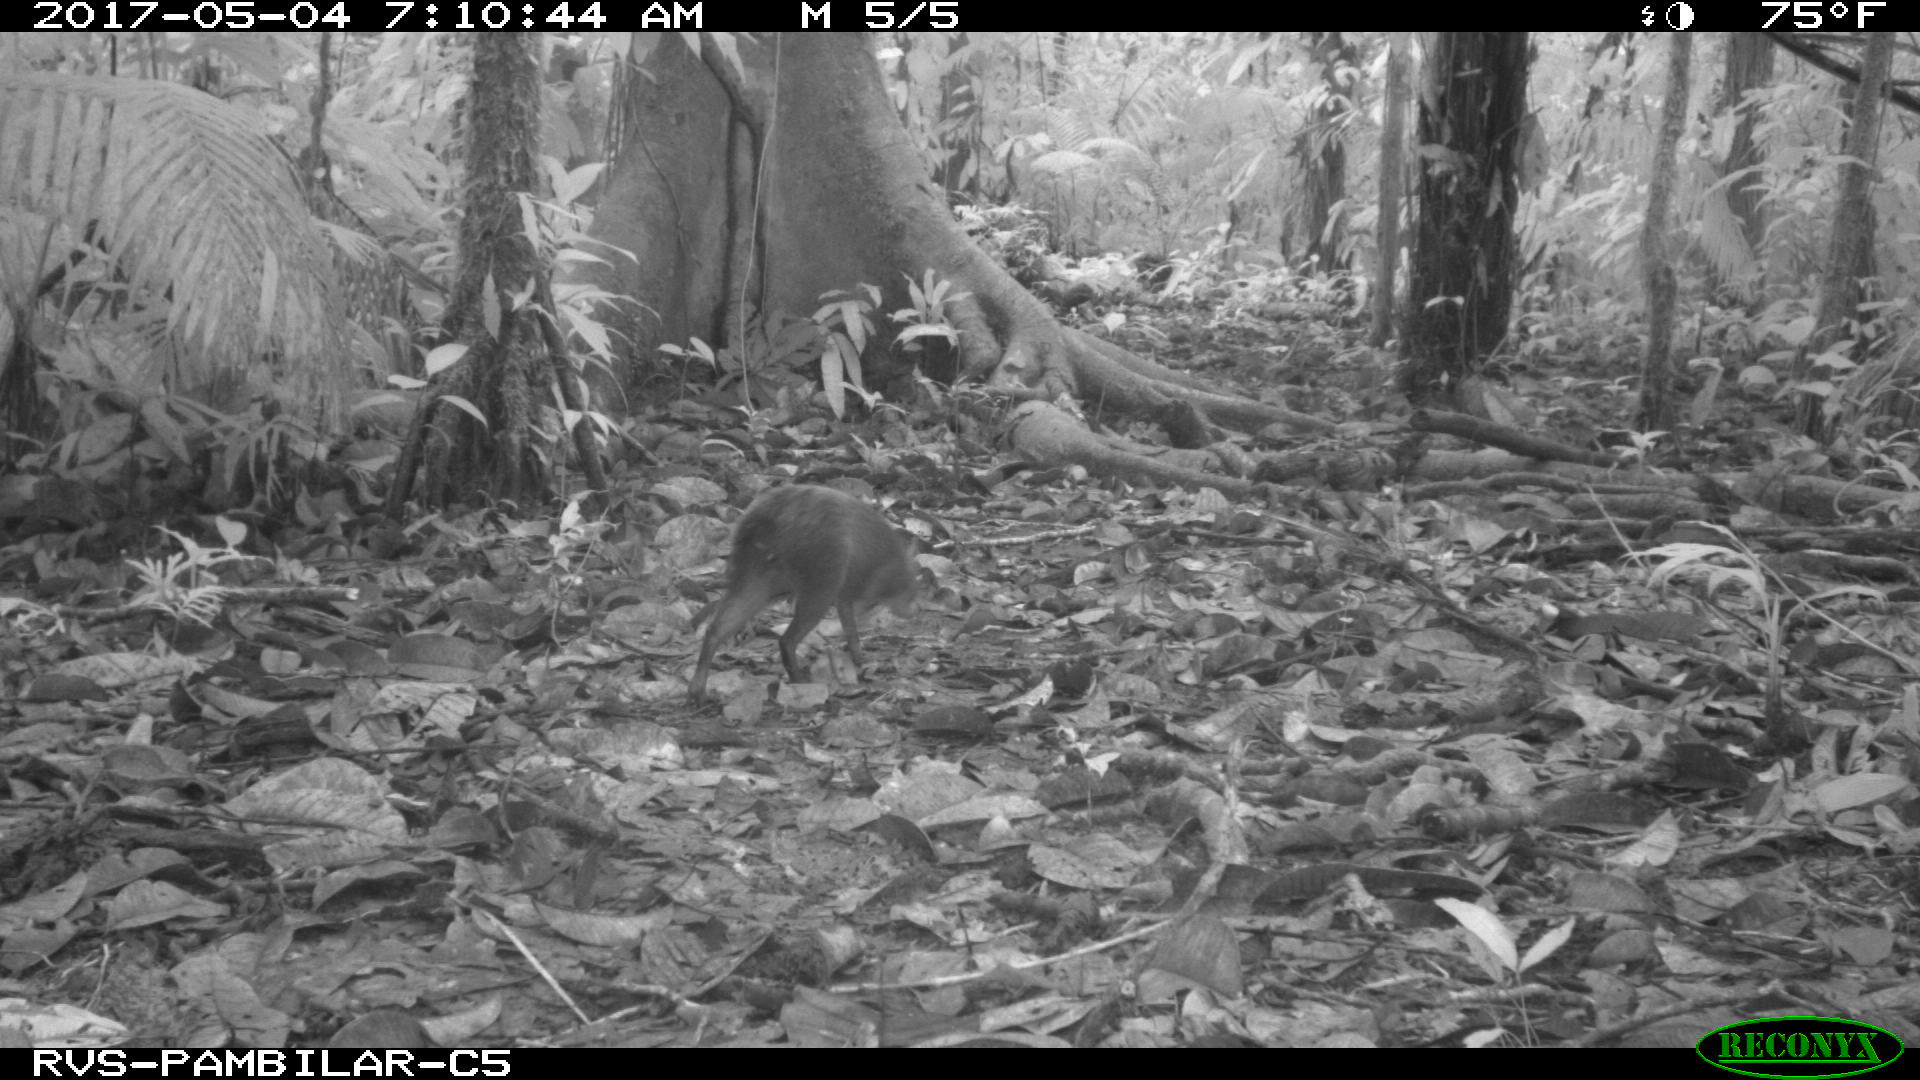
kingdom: Animalia
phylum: Chordata
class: Mammalia
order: Rodentia
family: Dasyproctidae
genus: Dasyprocta
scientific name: Dasyprocta punctata
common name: Central american agouti
